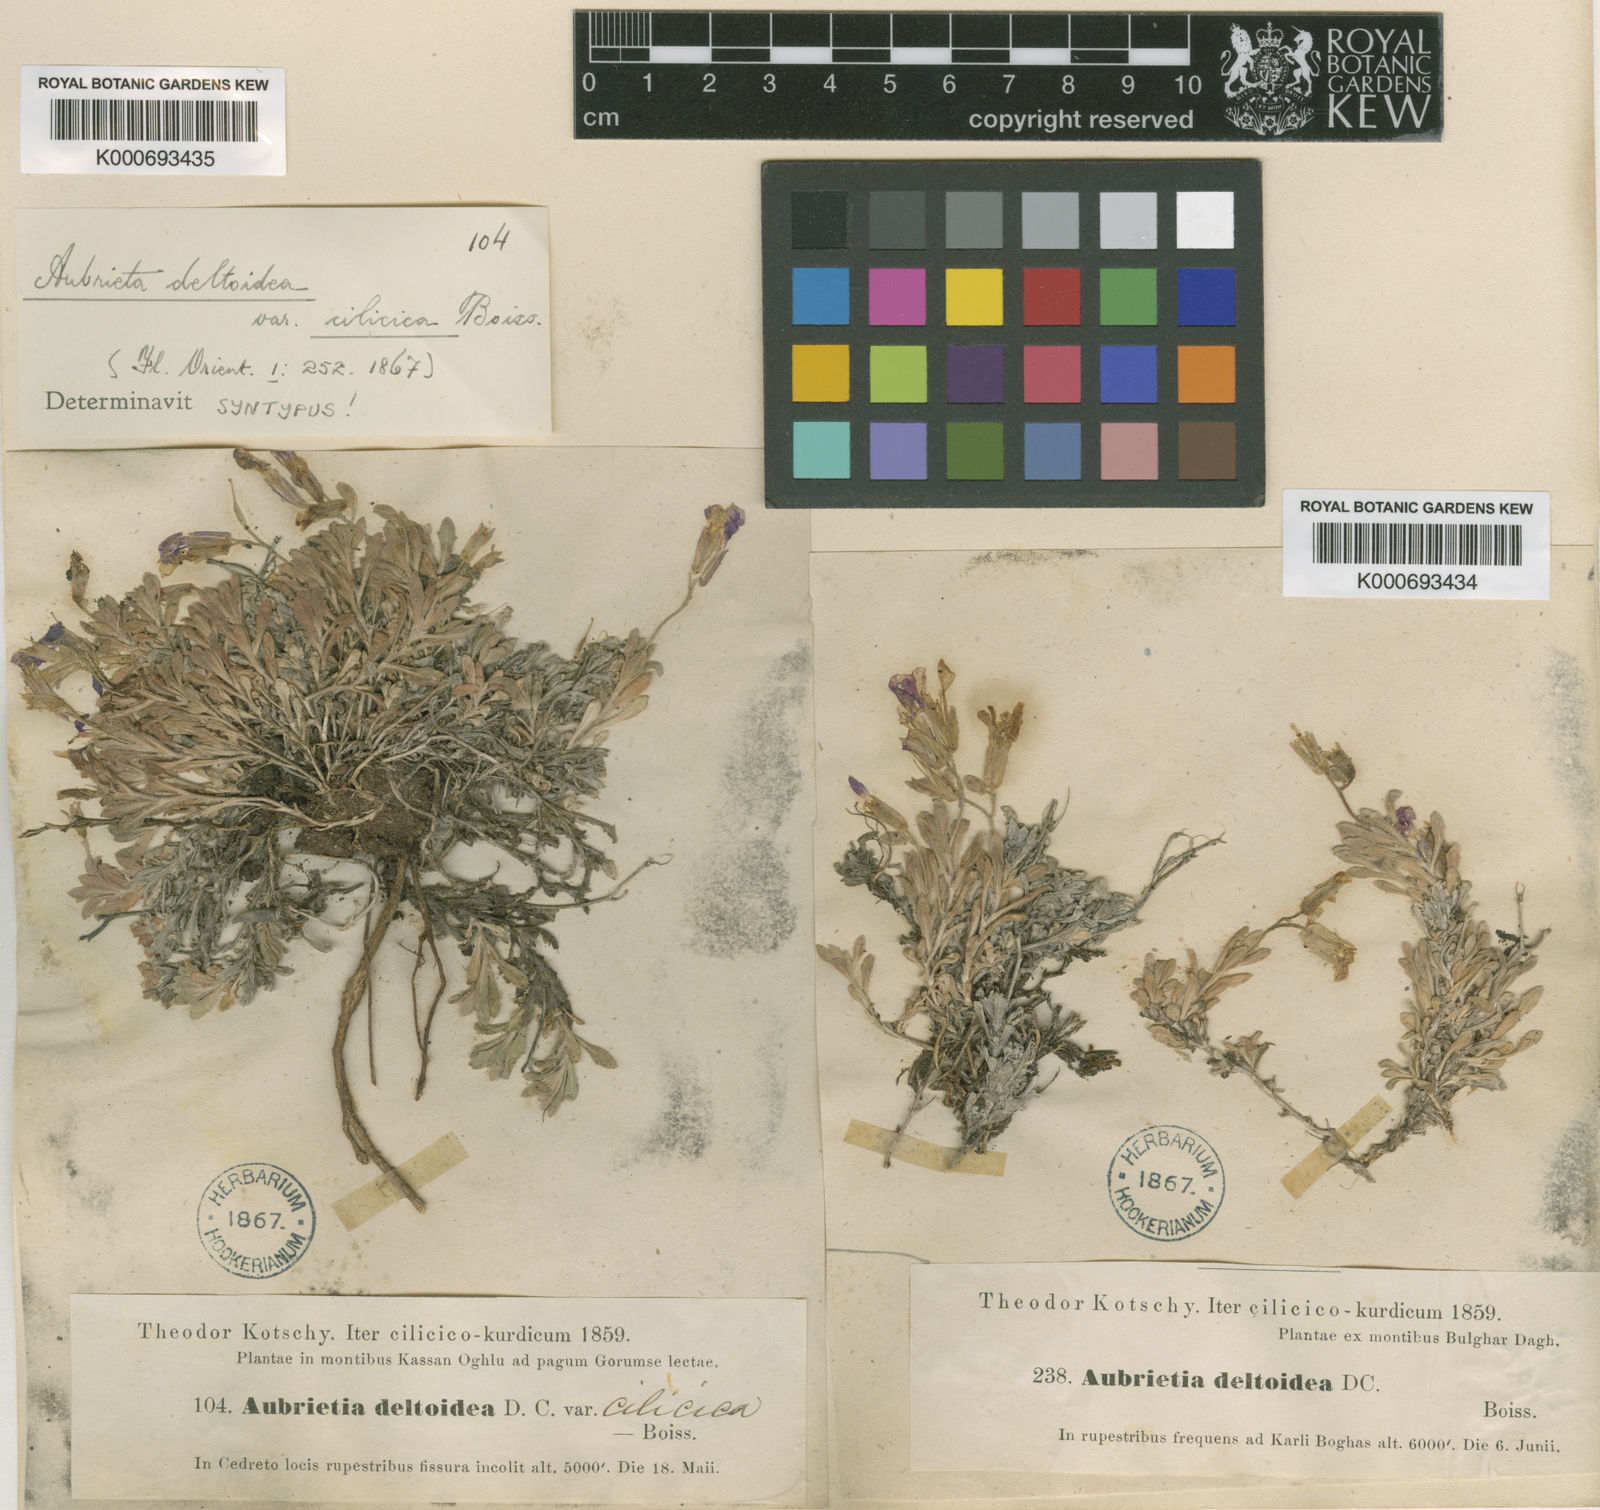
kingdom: Plantae
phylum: Tracheophyta
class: Magnoliopsida
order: Brassicales
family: Brassicaceae
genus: Aubrieta
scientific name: Aubrieta
